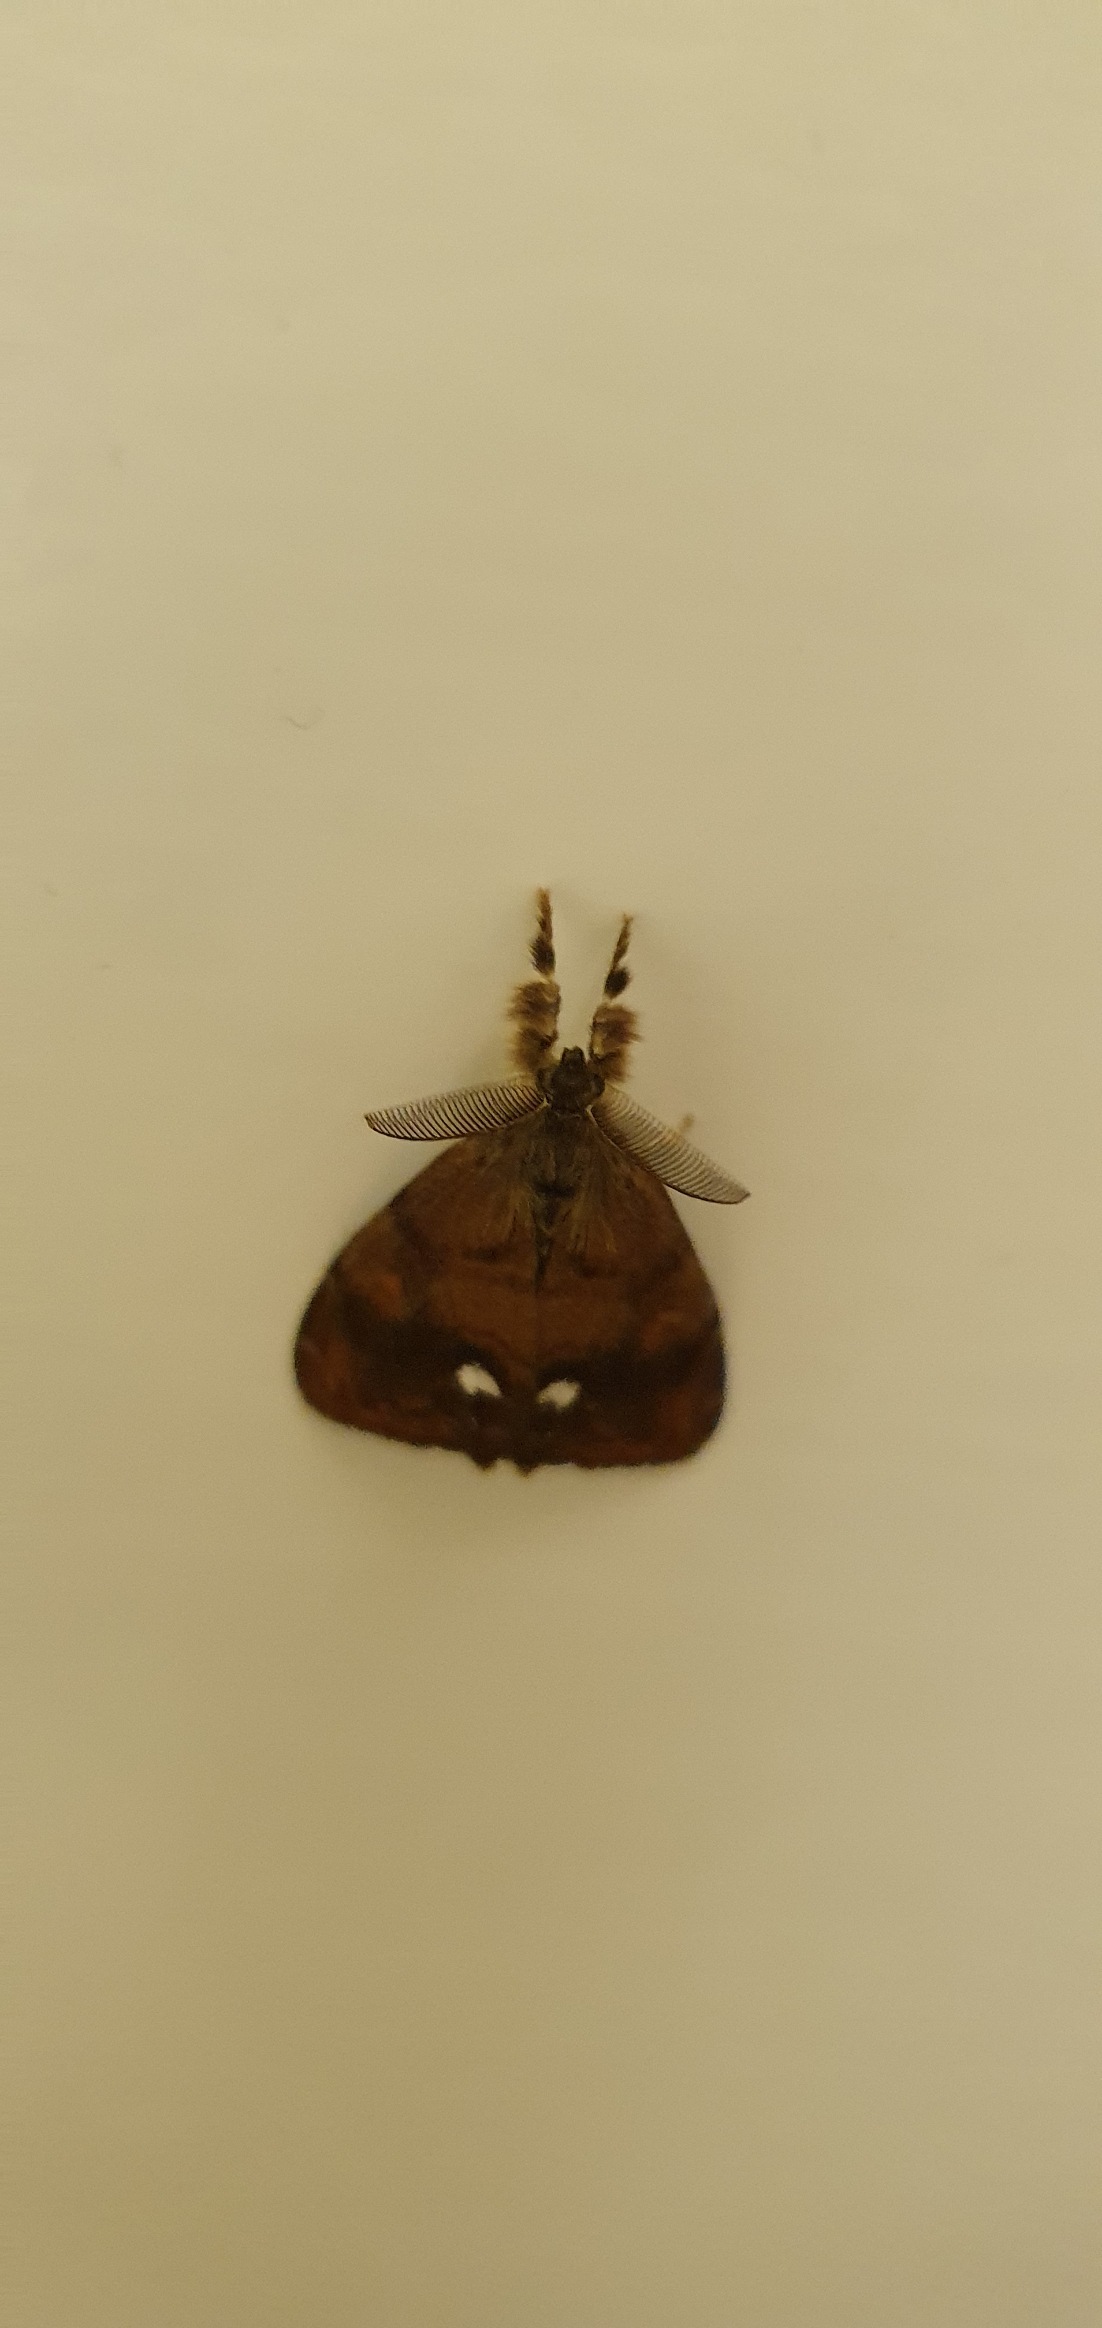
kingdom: Animalia
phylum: Arthropoda
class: Insecta
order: Lepidoptera
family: Erebidae
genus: Orgyia
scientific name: Orgyia antiqua
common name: Lille penselspinder
